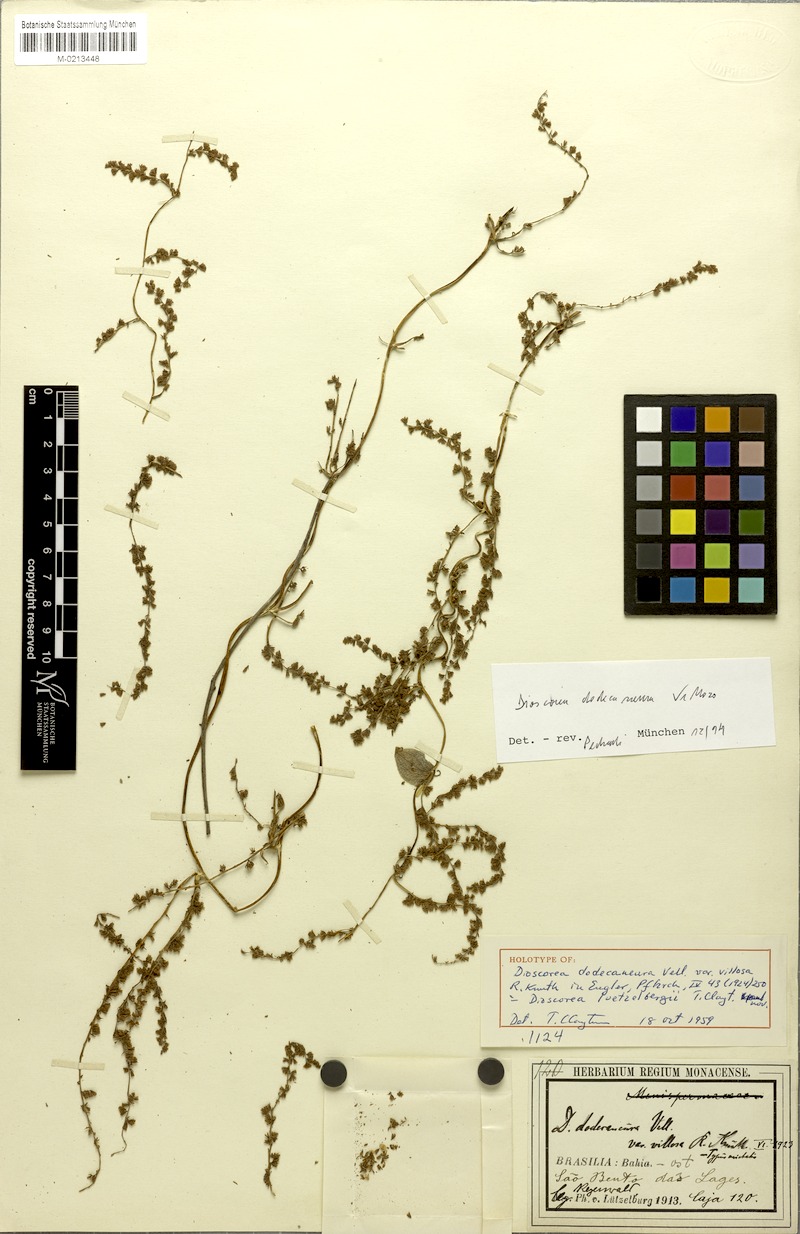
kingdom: Plantae
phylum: Tracheophyta
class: Liliopsida
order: Dioscoreales
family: Dioscoreaceae
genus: Dioscorea
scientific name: Dioscorea stegelmanniana
